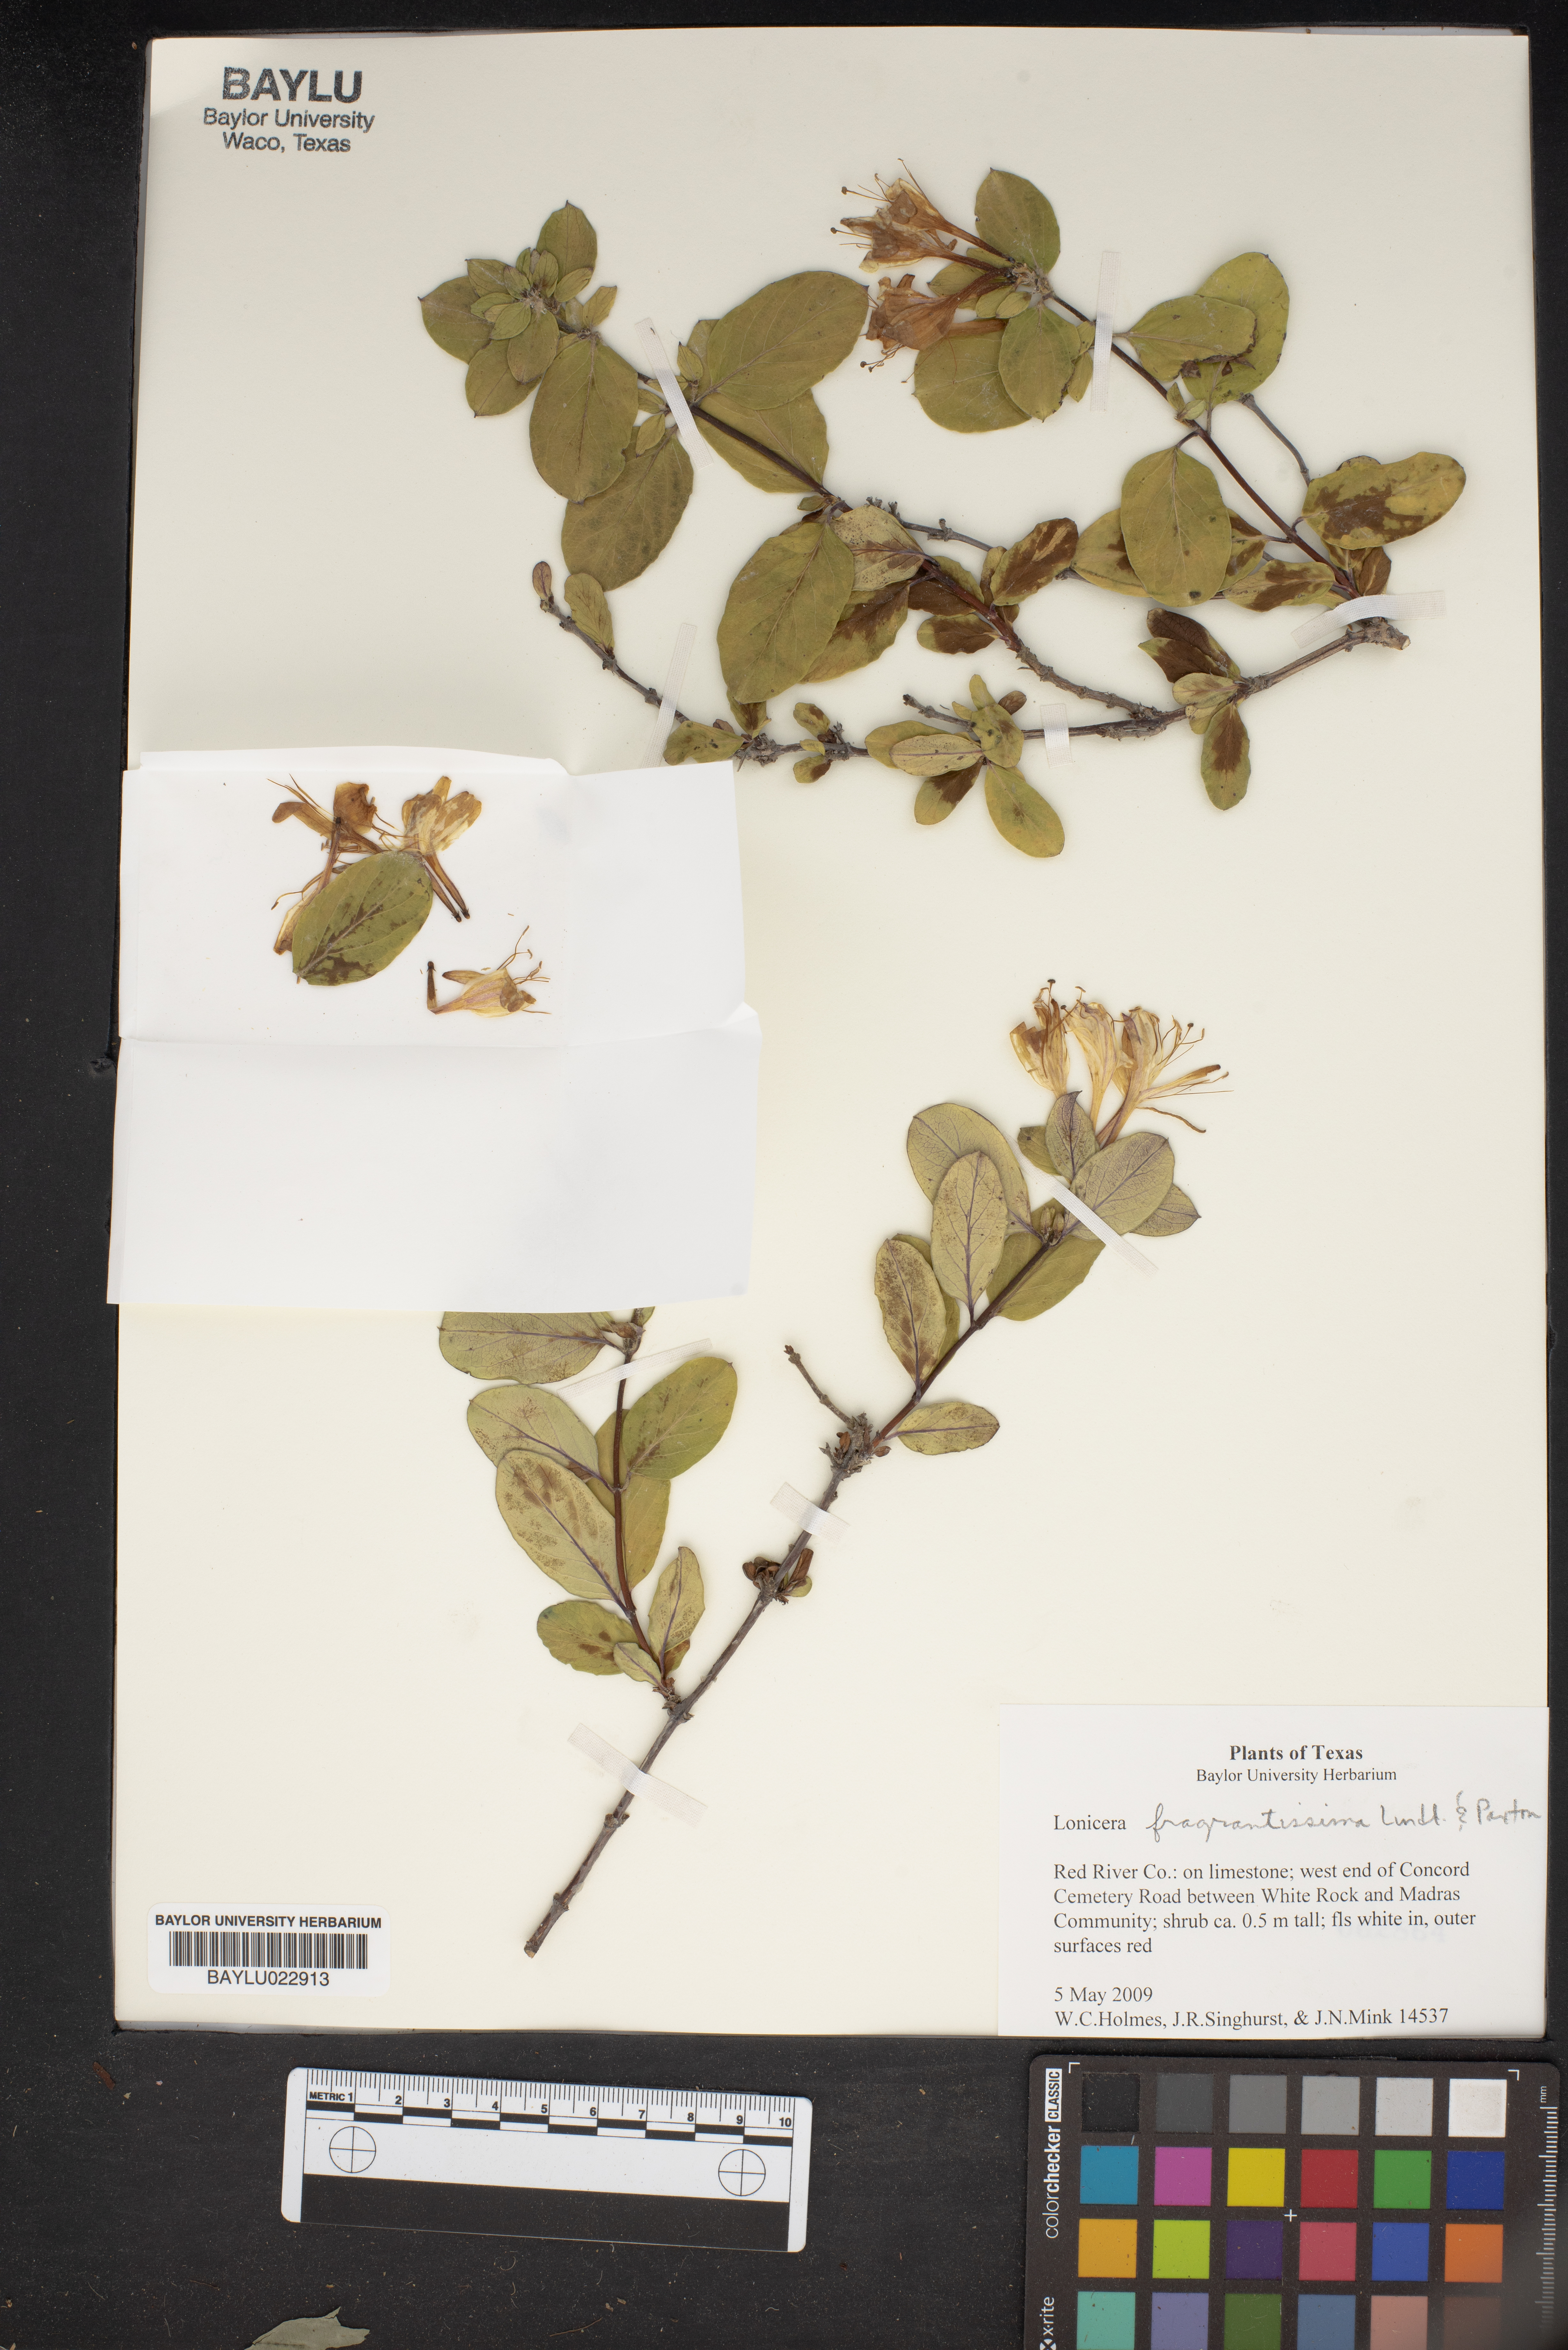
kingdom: Plantae
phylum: Tracheophyta
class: Magnoliopsida
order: Dipsacales
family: Caprifoliaceae
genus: Lonicera
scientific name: Lonicera fragrantissima
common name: Fragrant honeysuckle
